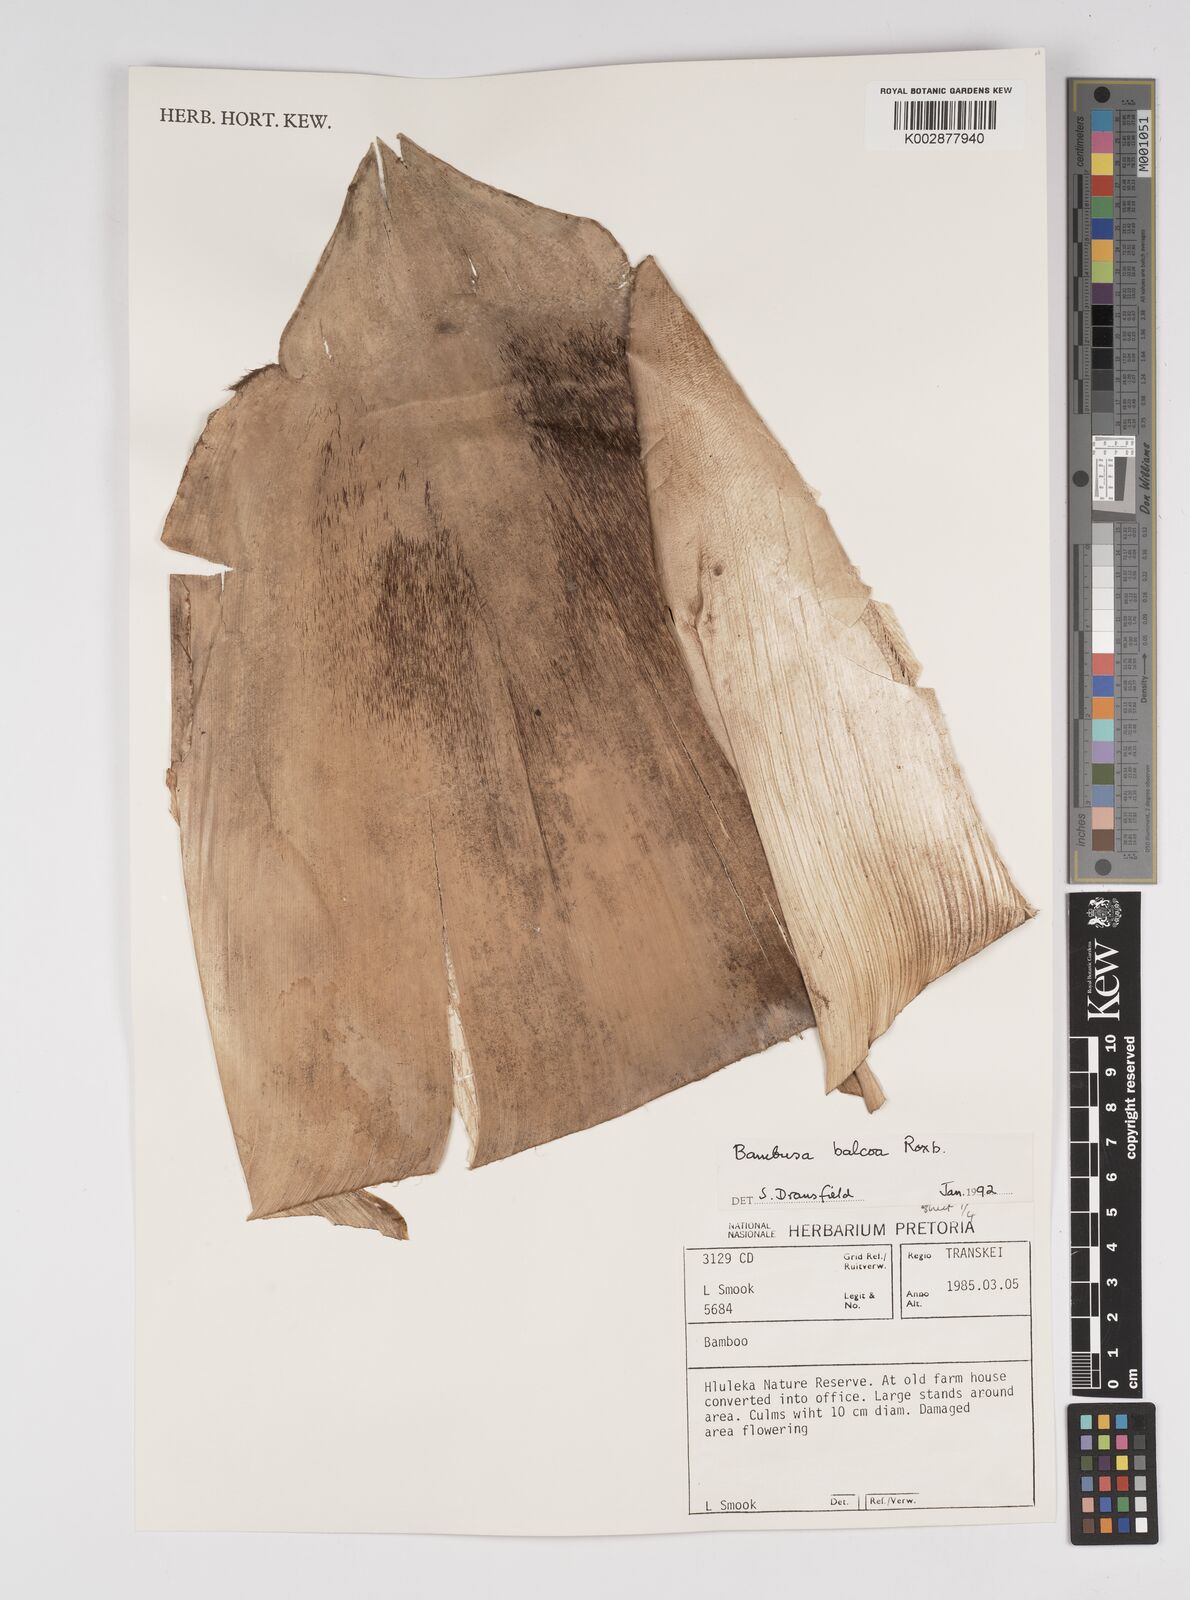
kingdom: Plantae
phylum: Tracheophyta
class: Liliopsida
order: Poales
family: Poaceae
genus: Bambusa
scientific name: Bambusa balcooa
